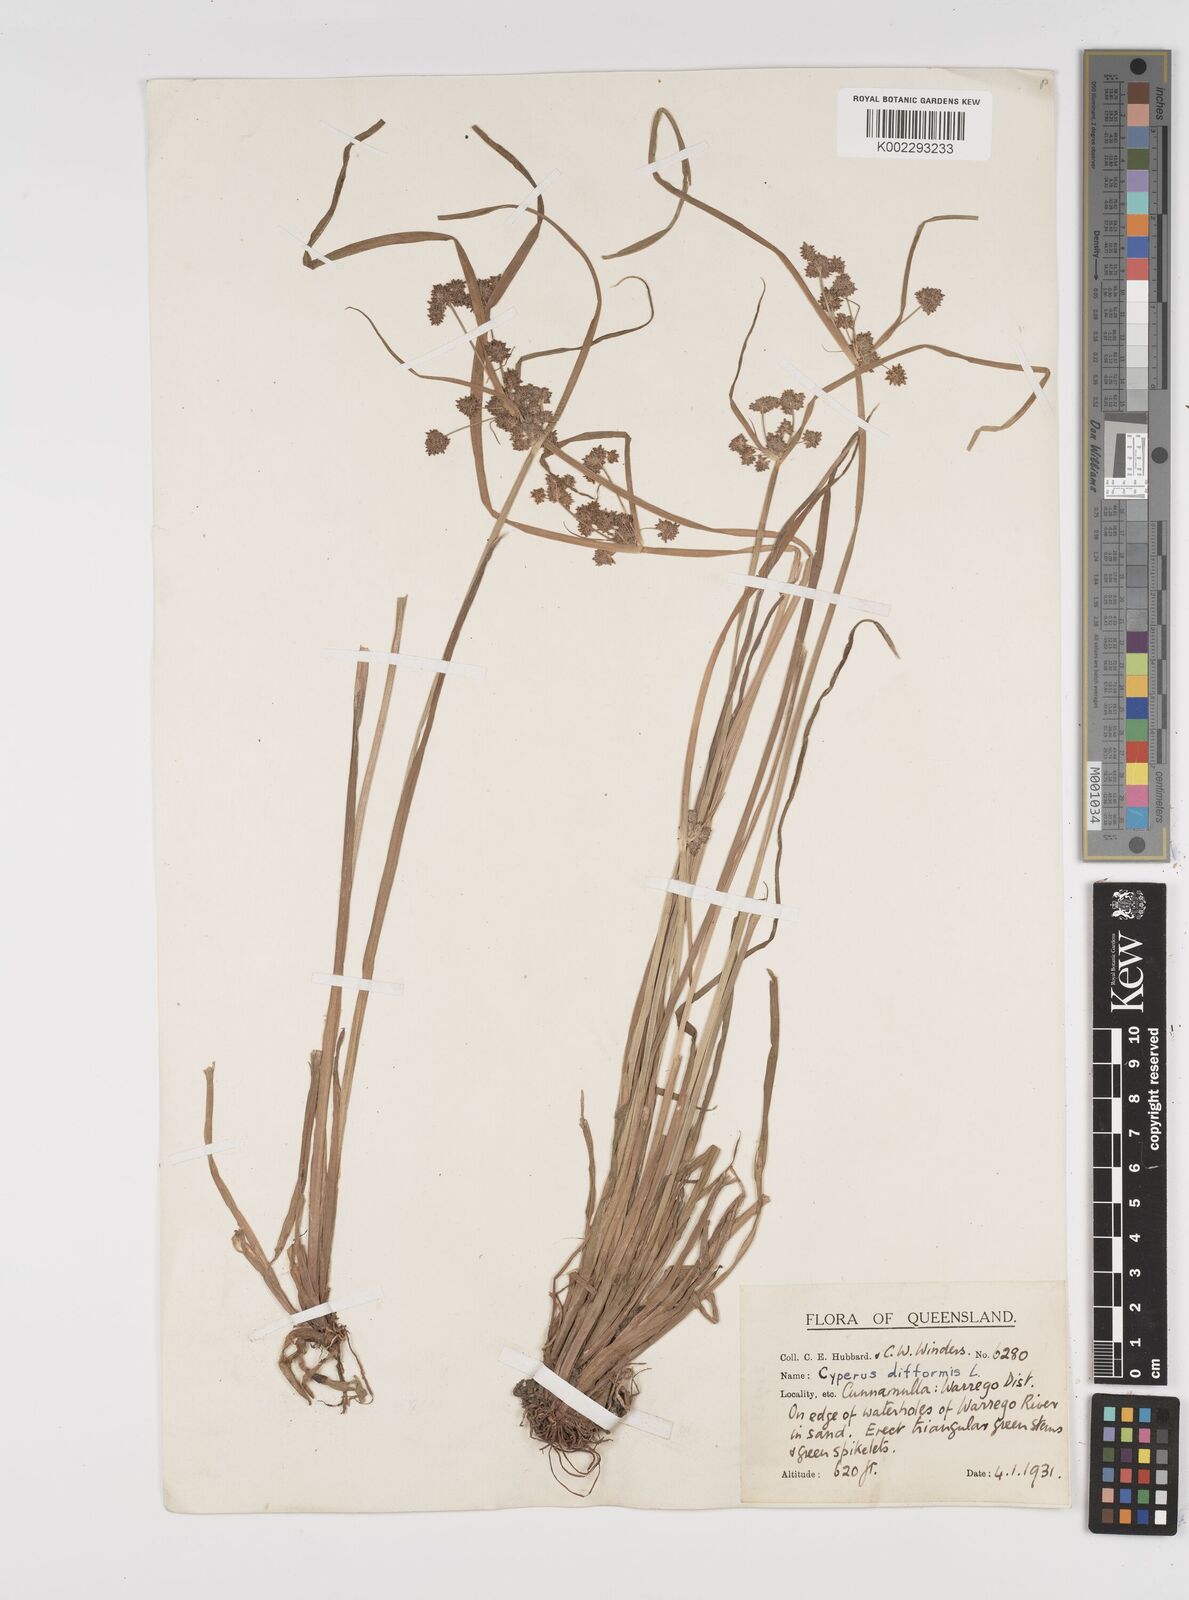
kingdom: Plantae
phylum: Tracheophyta
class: Liliopsida
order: Poales
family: Cyperaceae
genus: Cyperus
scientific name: Cyperus difformis
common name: Variable flatsedge
